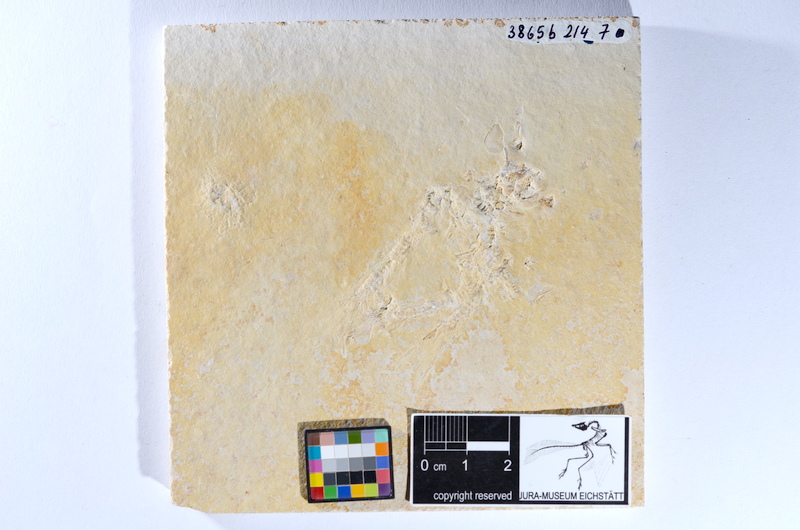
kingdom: Animalia
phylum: Chordata
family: Ascalaboidae
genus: Tharsis
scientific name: Tharsis dubius
